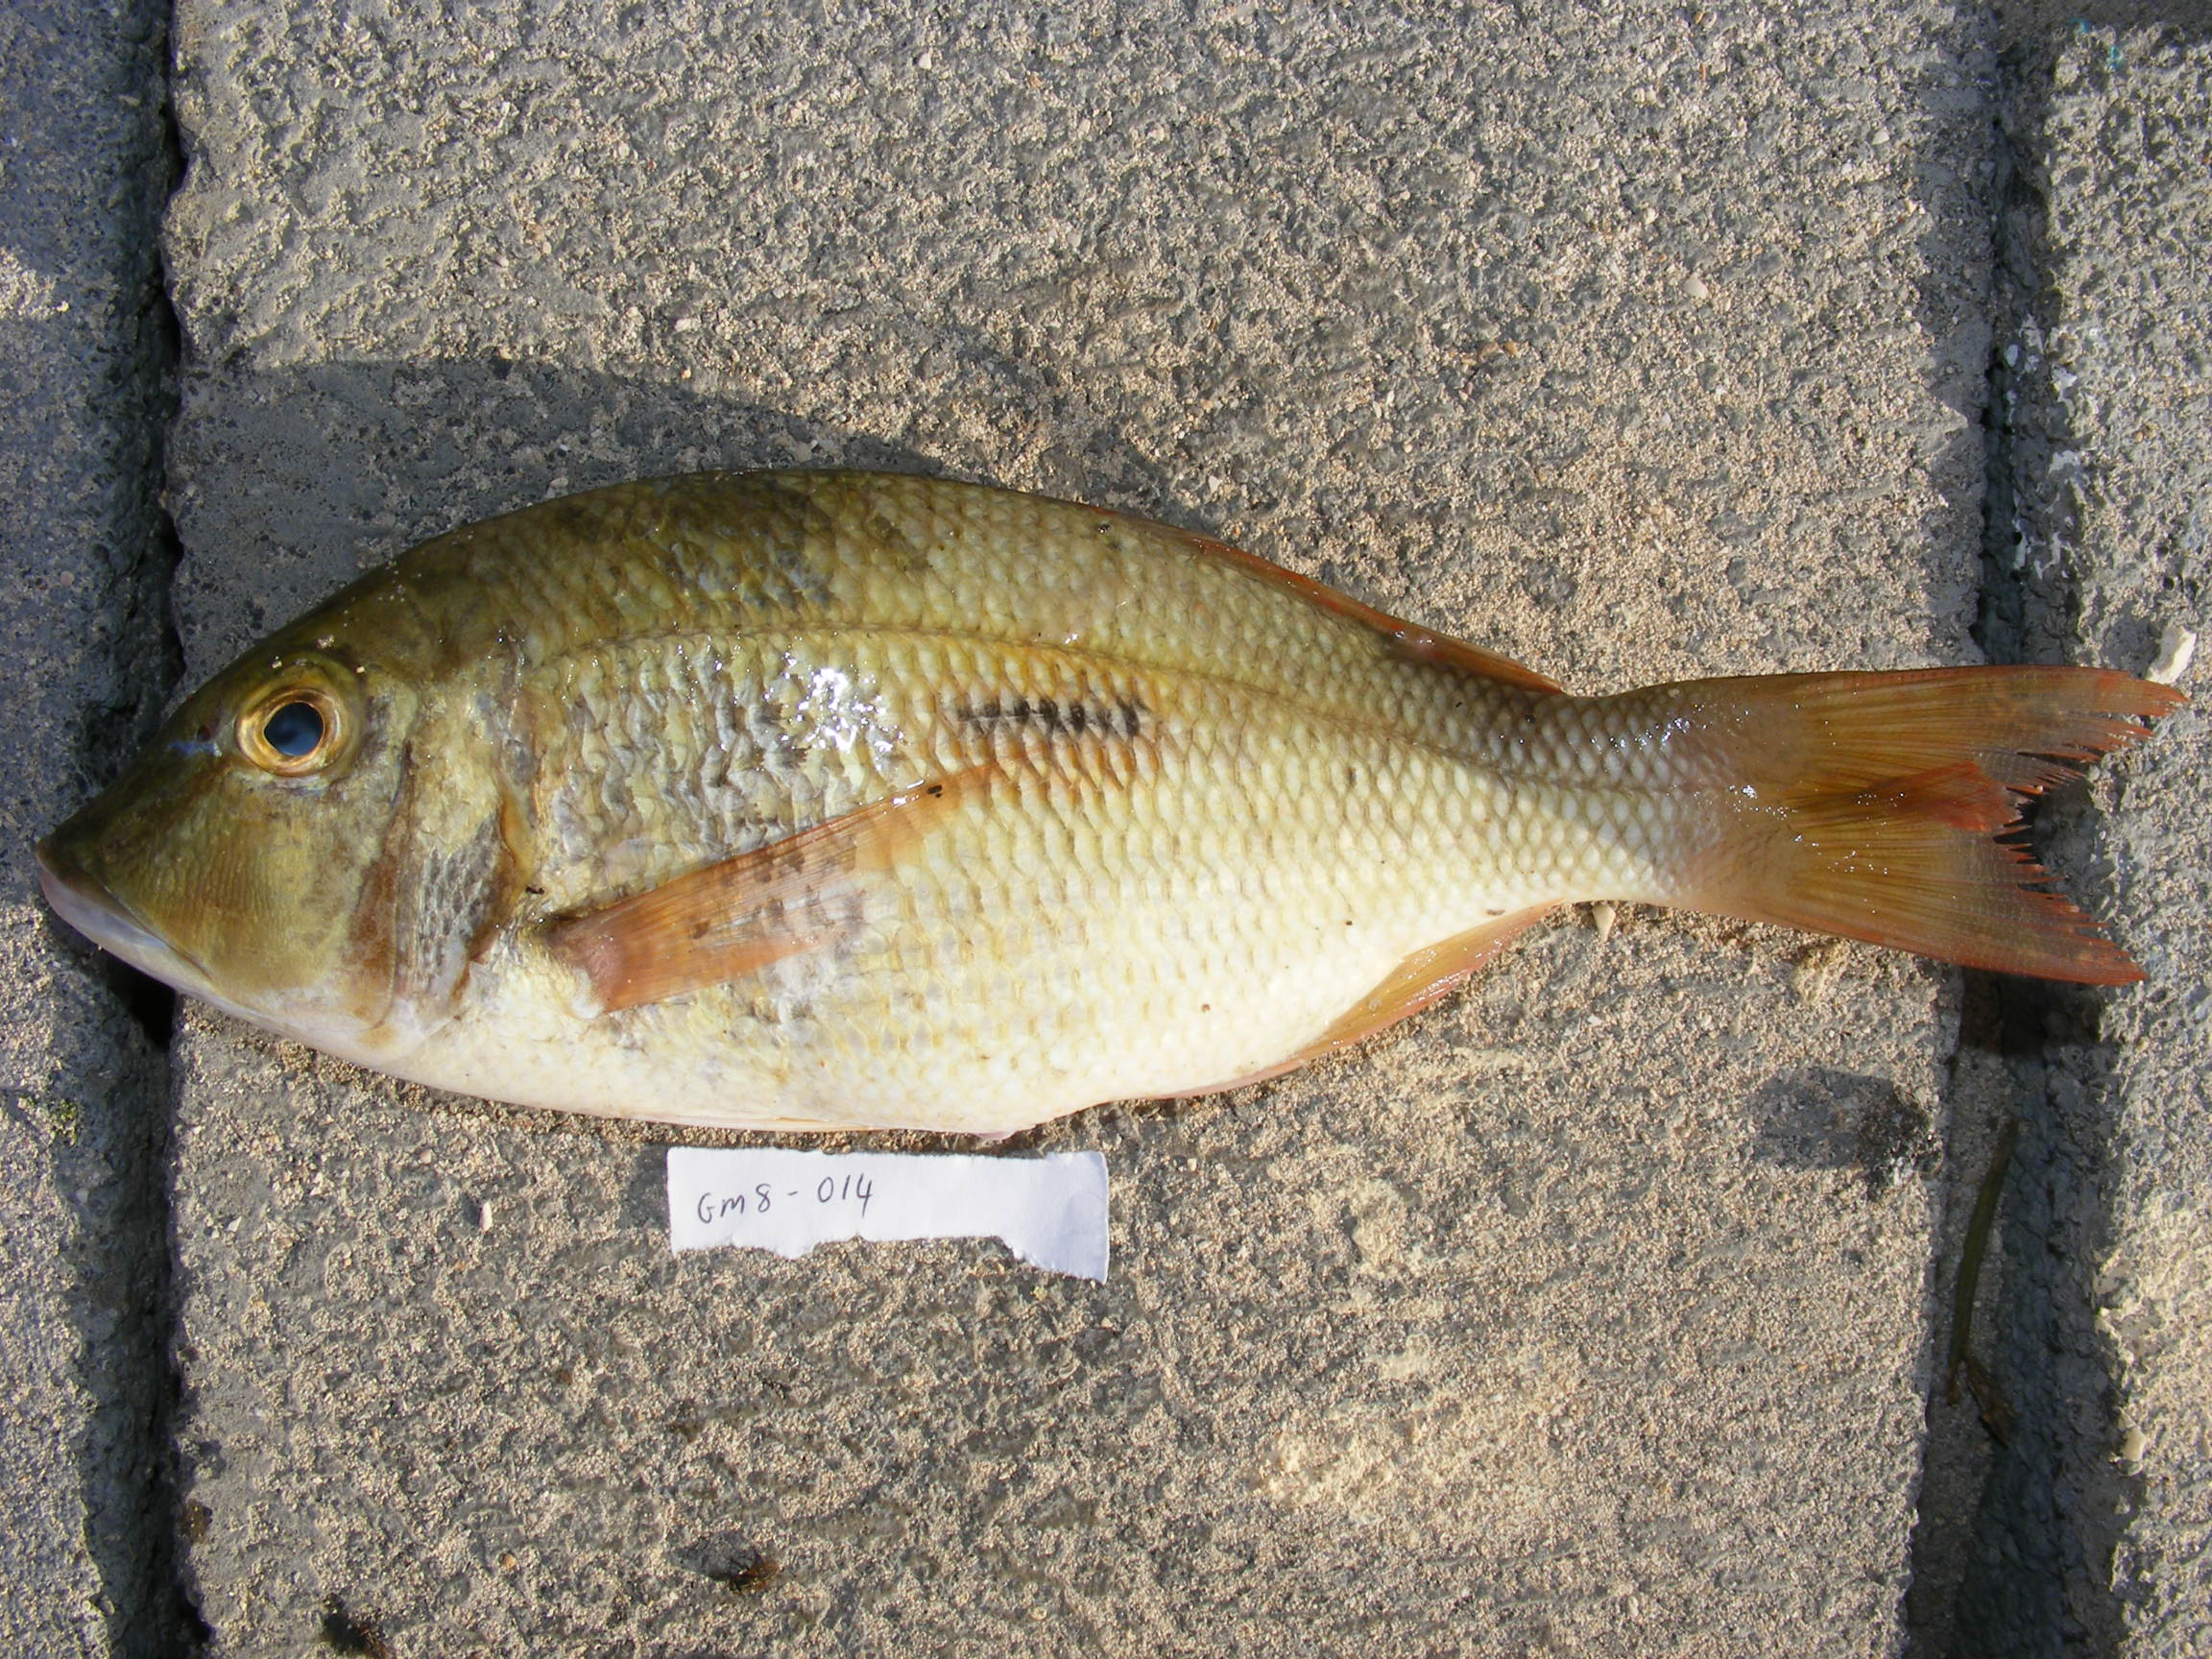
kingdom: Animalia
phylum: Chordata
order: Perciformes
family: Lethrinidae
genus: Lethrinus
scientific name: Lethrinus harak
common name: Blackspot emperor
